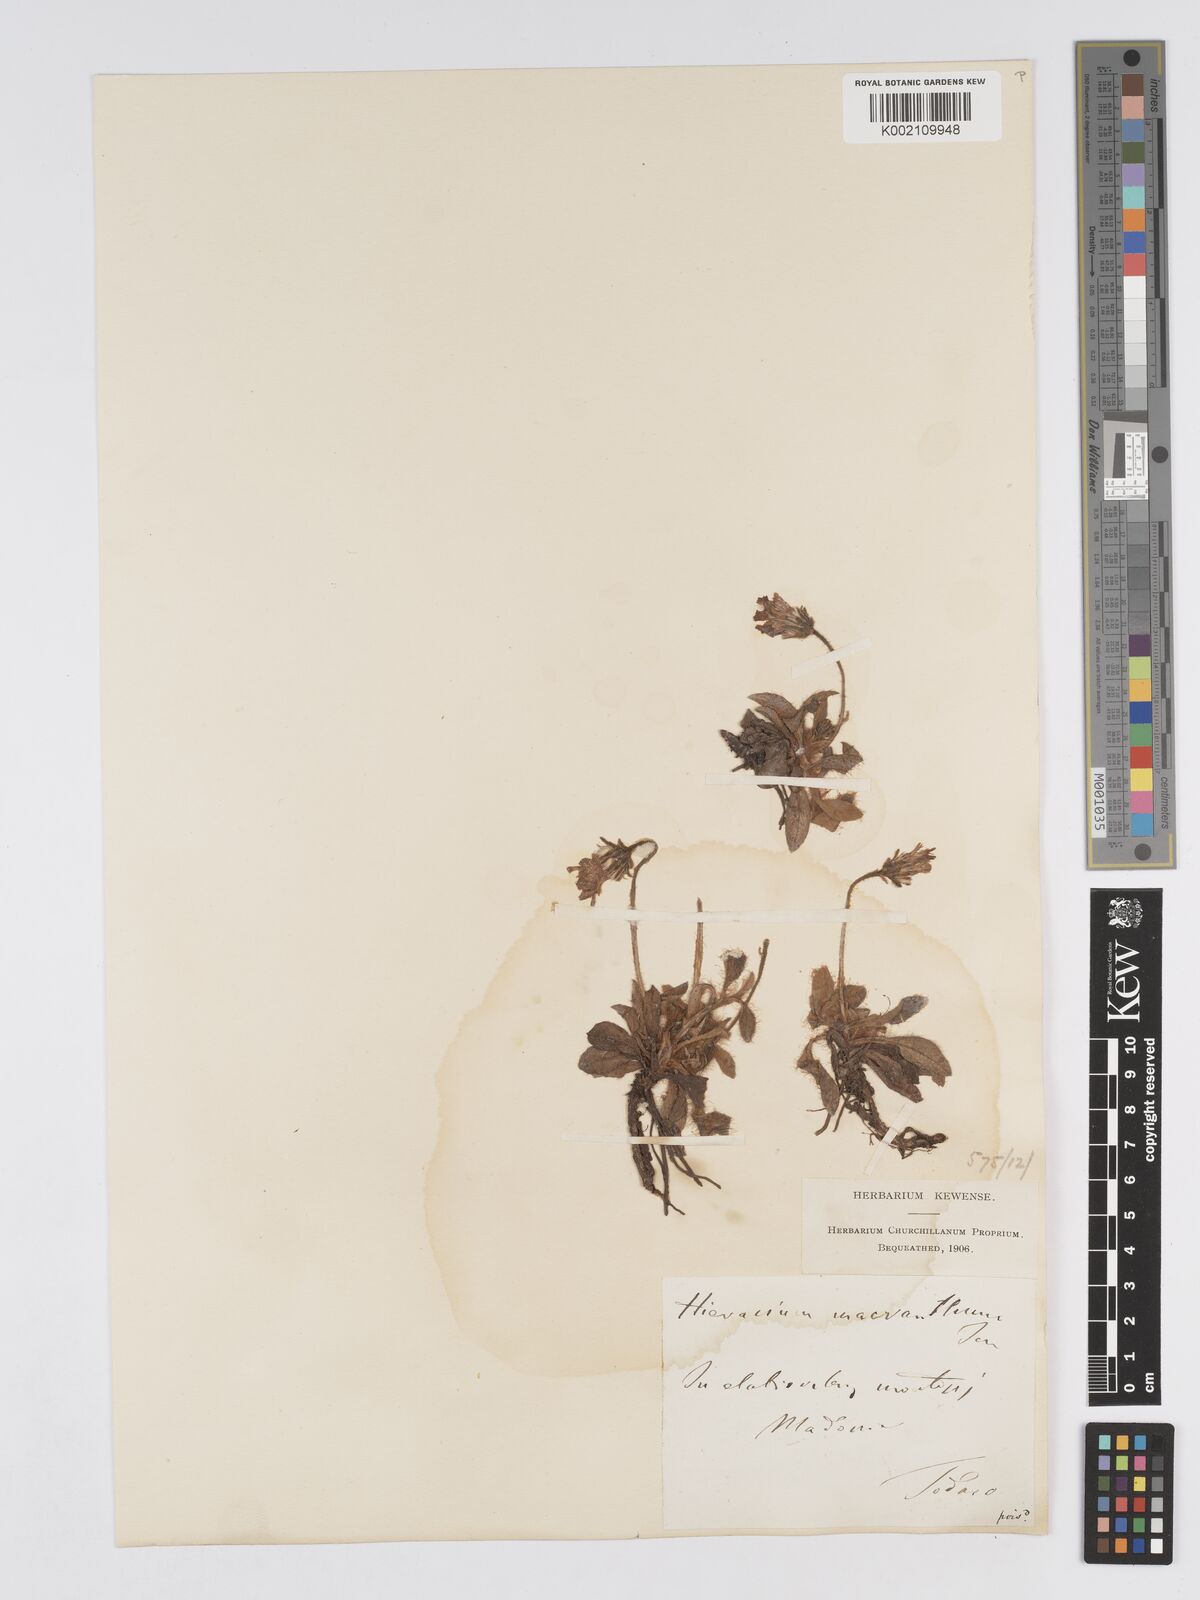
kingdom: Plantae
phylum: Tracheophyta
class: Magnoliopsida
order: Asterales
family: Asteraceae
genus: Pilosella
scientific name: Pilosella hoppeana
